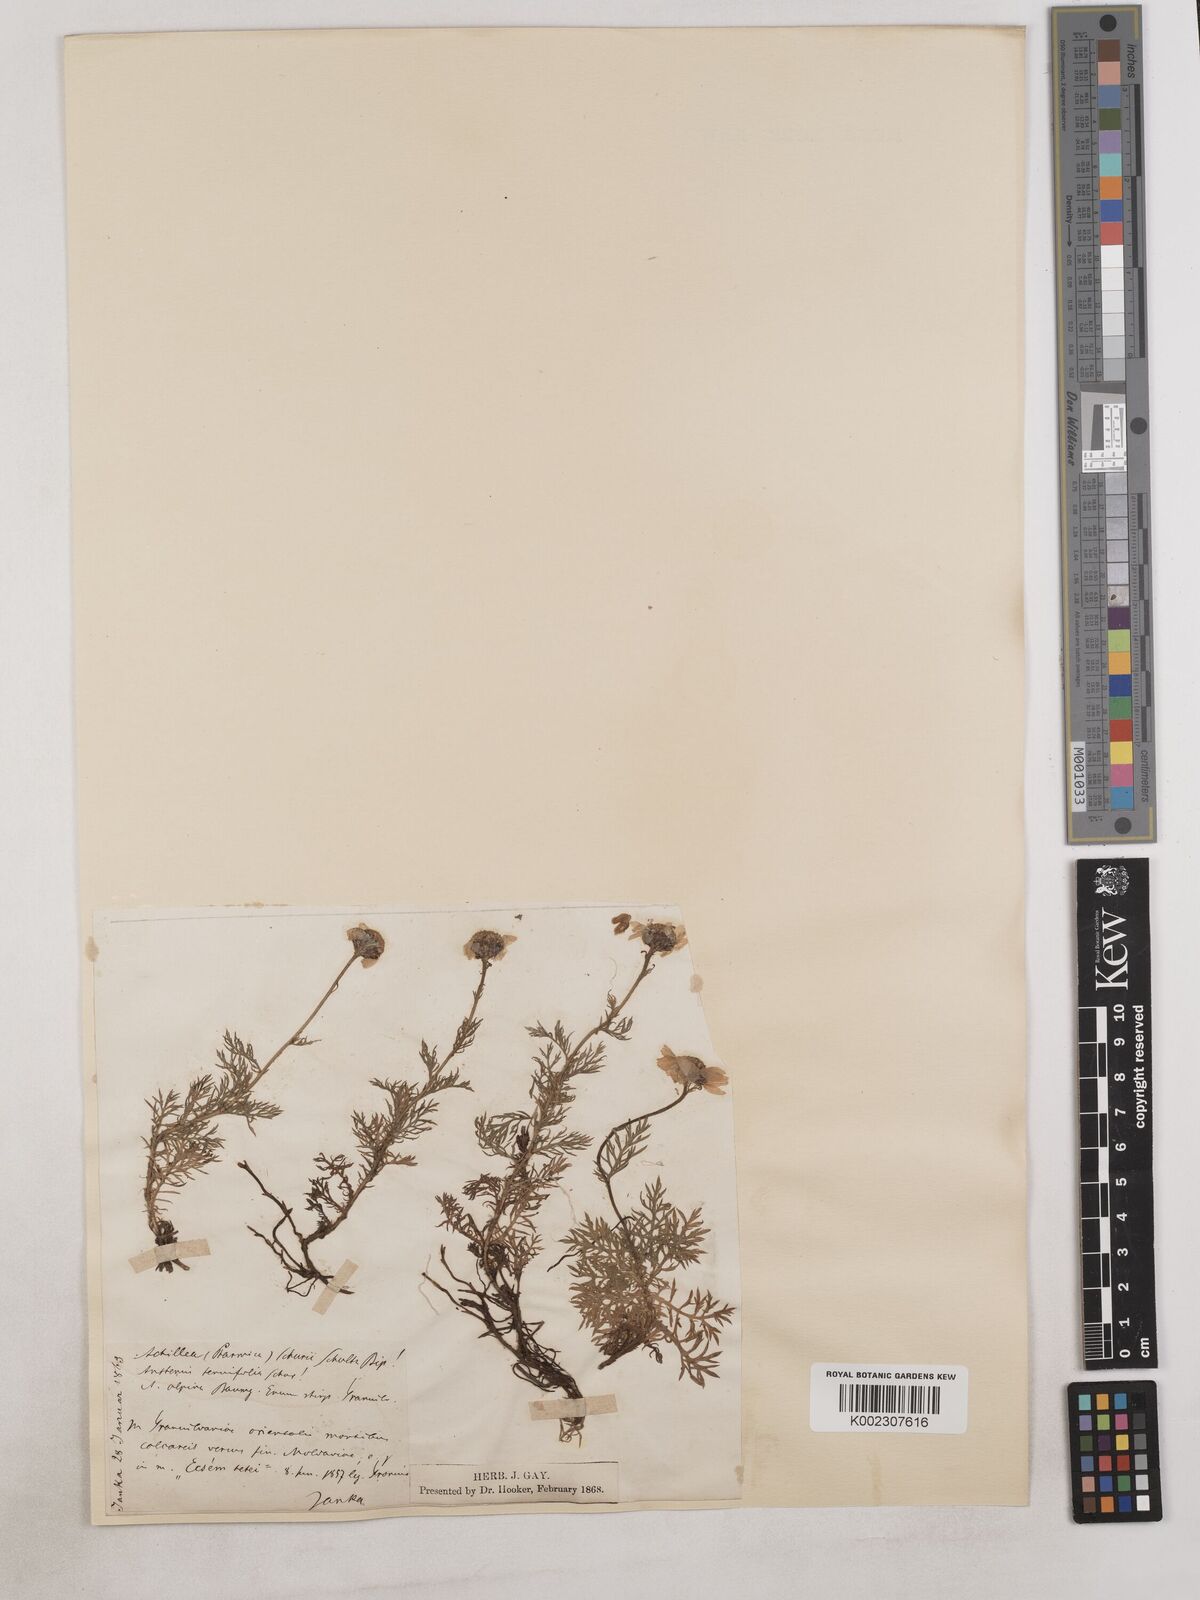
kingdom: Plantae
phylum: Tracheophyta
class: Magnoliopsida
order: Asterales
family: Asteraceae
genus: Achillea
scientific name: Achillea millefolium
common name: Yarrow
